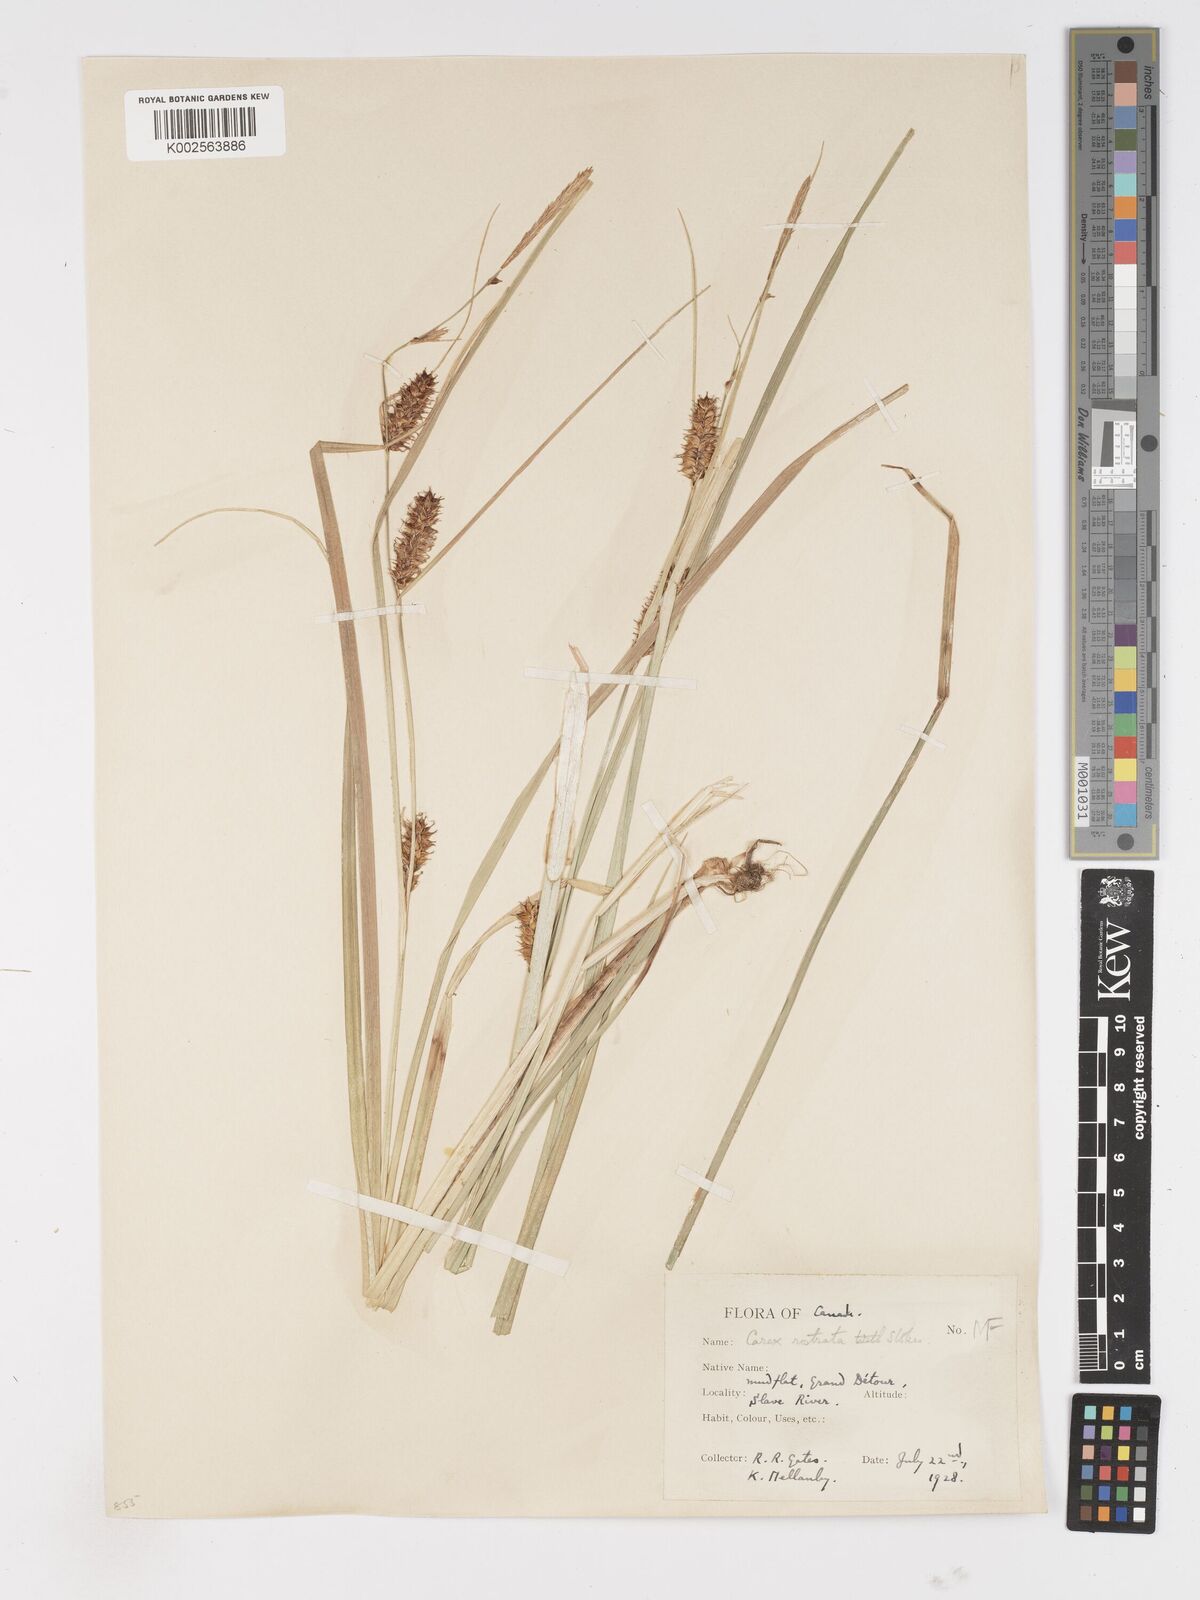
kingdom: Plantae
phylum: Tracheophyta
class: Liliopsida
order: Poales
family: Cyperaceae
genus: Carex
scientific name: Carex rostrata
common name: Bottle sedge
